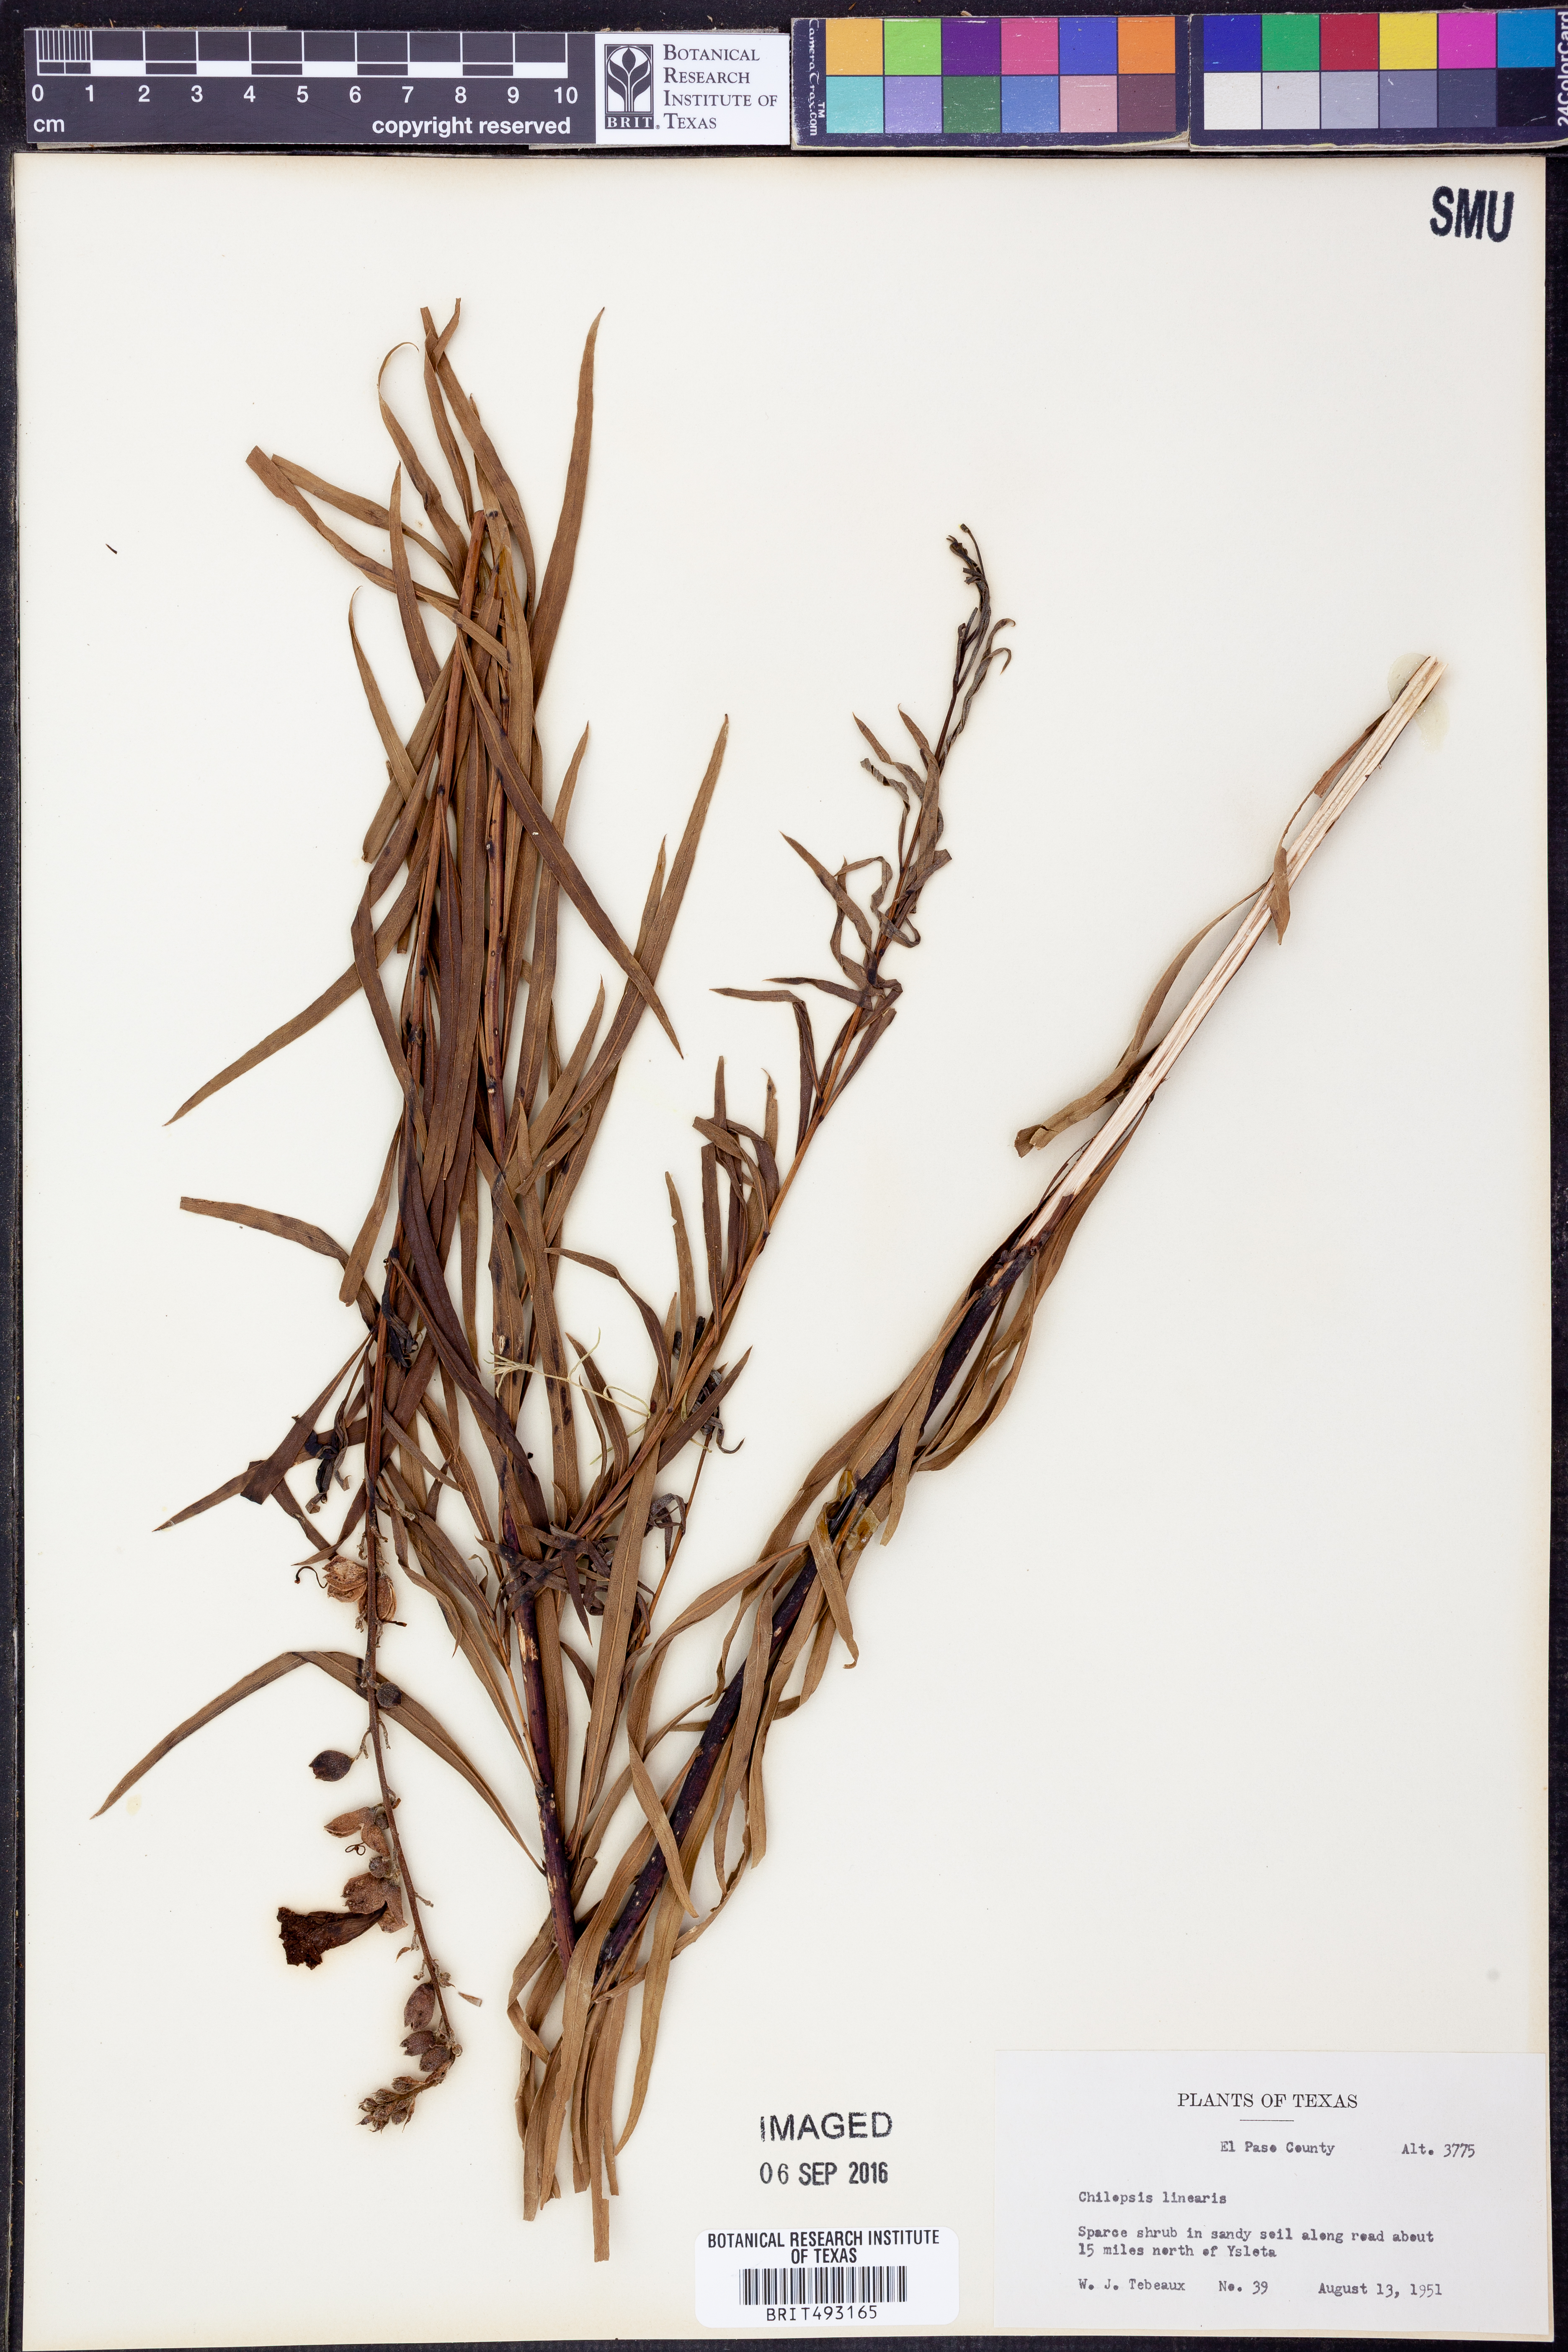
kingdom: Plantae
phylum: Tracheophyta
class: Magnoliopsida
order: Lamiales
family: Bignoniaceae
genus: Chilopsis
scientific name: Chilopsis linearis
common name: Desert-willow
